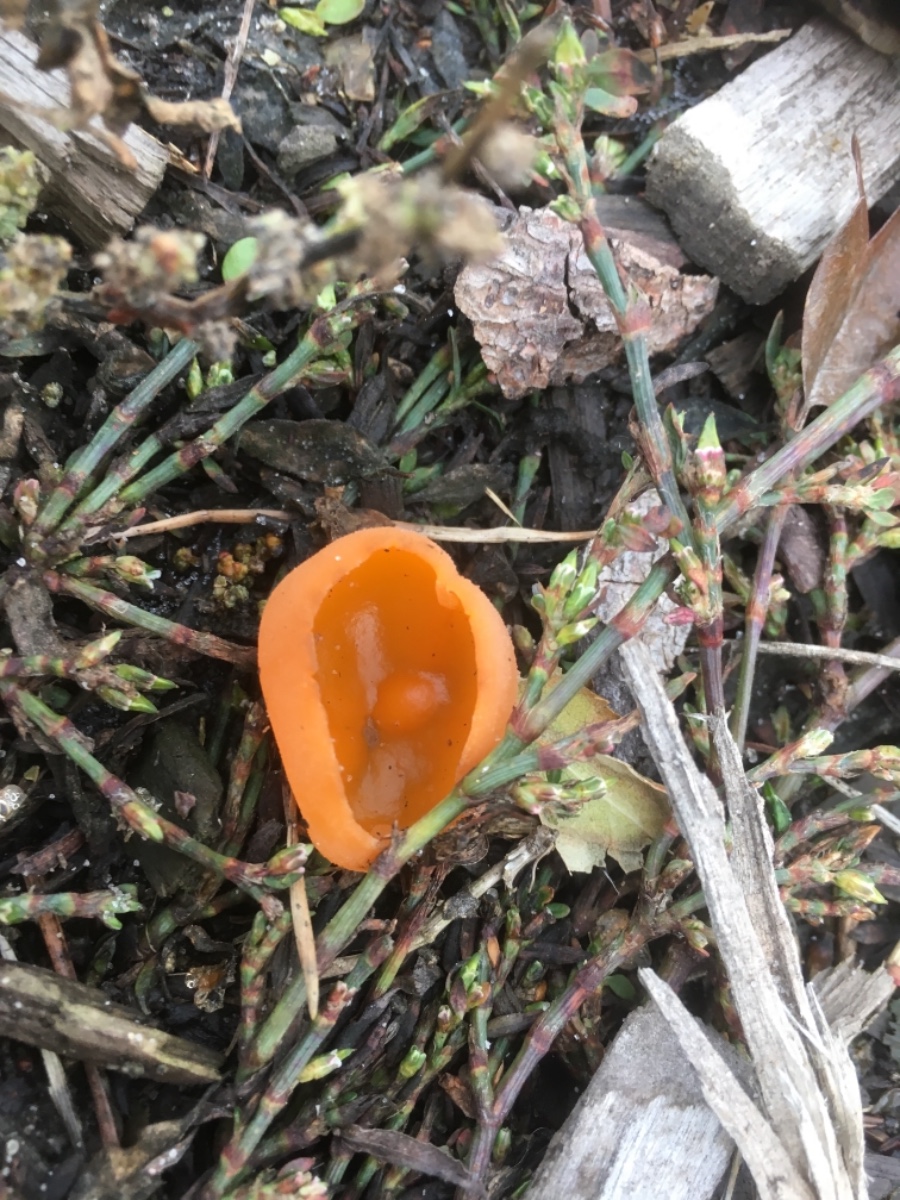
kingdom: Fungi
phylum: Ascomycota
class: Pezizomycetes
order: Pezizales
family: Pyronemataceae
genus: Aleuria
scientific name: Aleuria aurantia
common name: almindelig orangebæger
